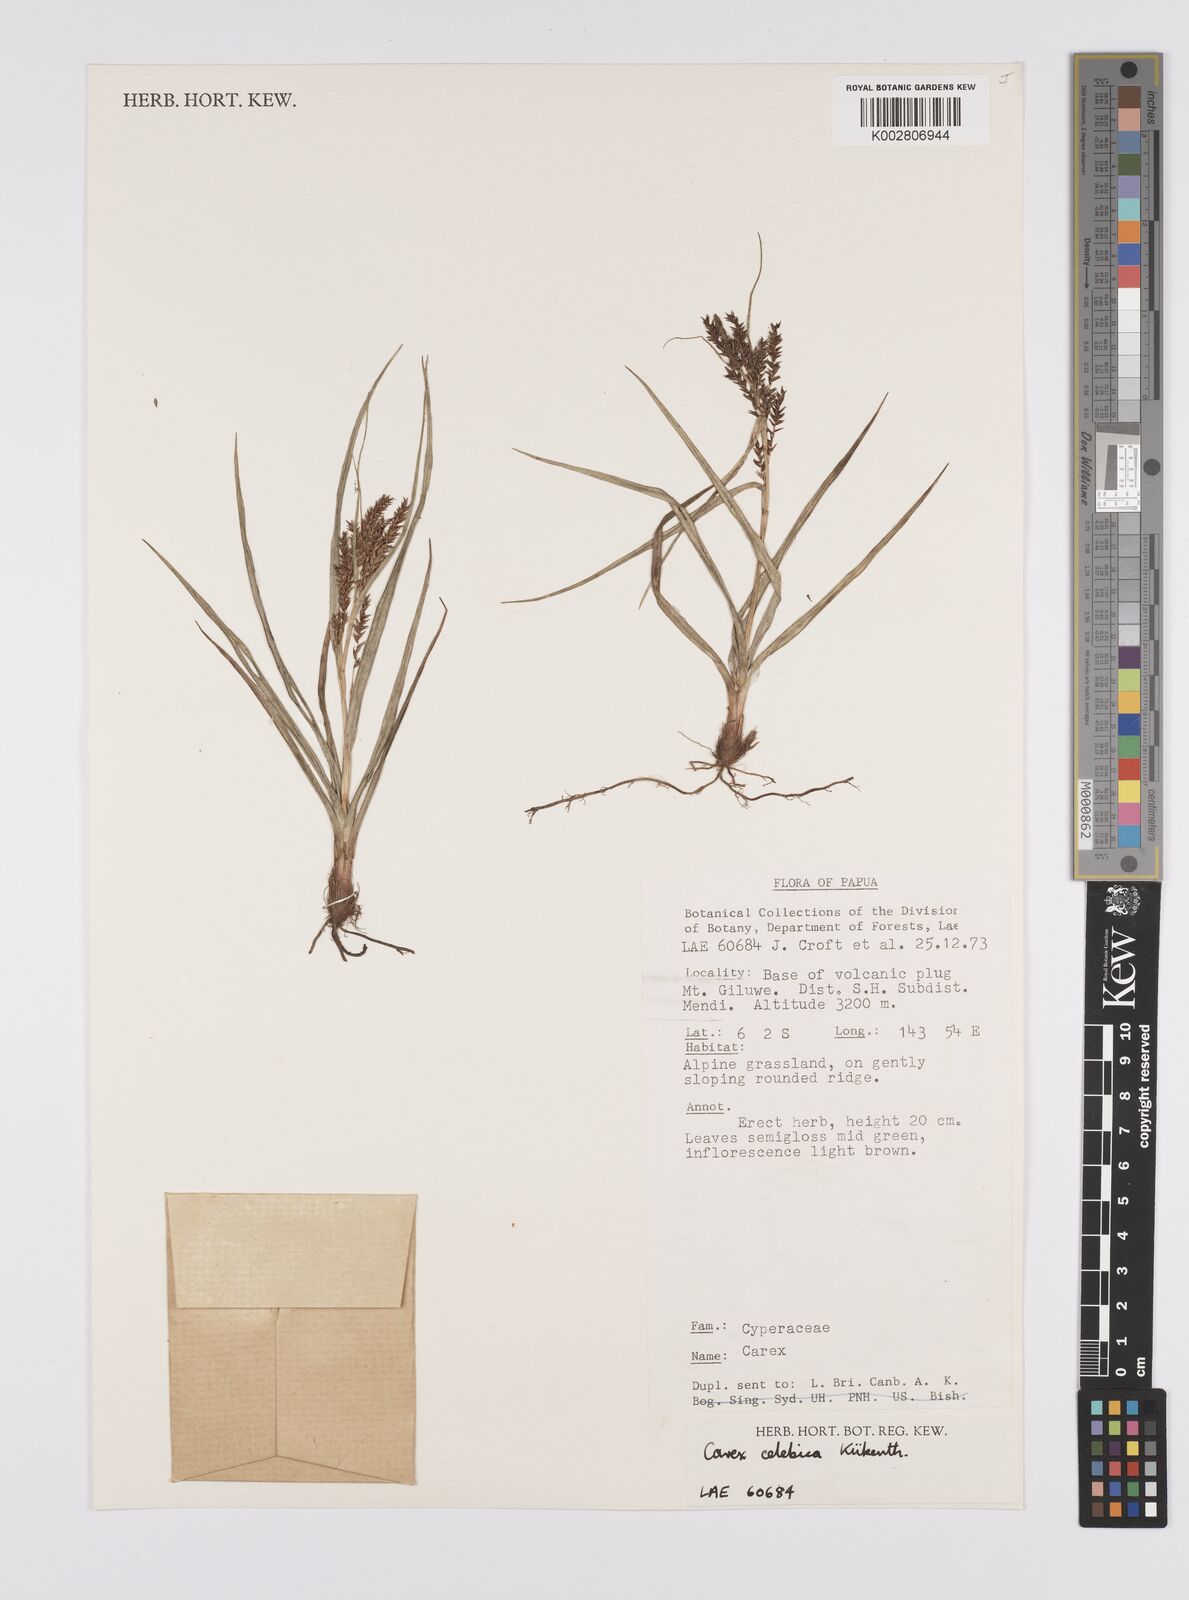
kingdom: Plantae
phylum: Tracheophyta
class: Liliopsida
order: Poales
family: Cyperaceae
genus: Carex
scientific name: Carex celebica
